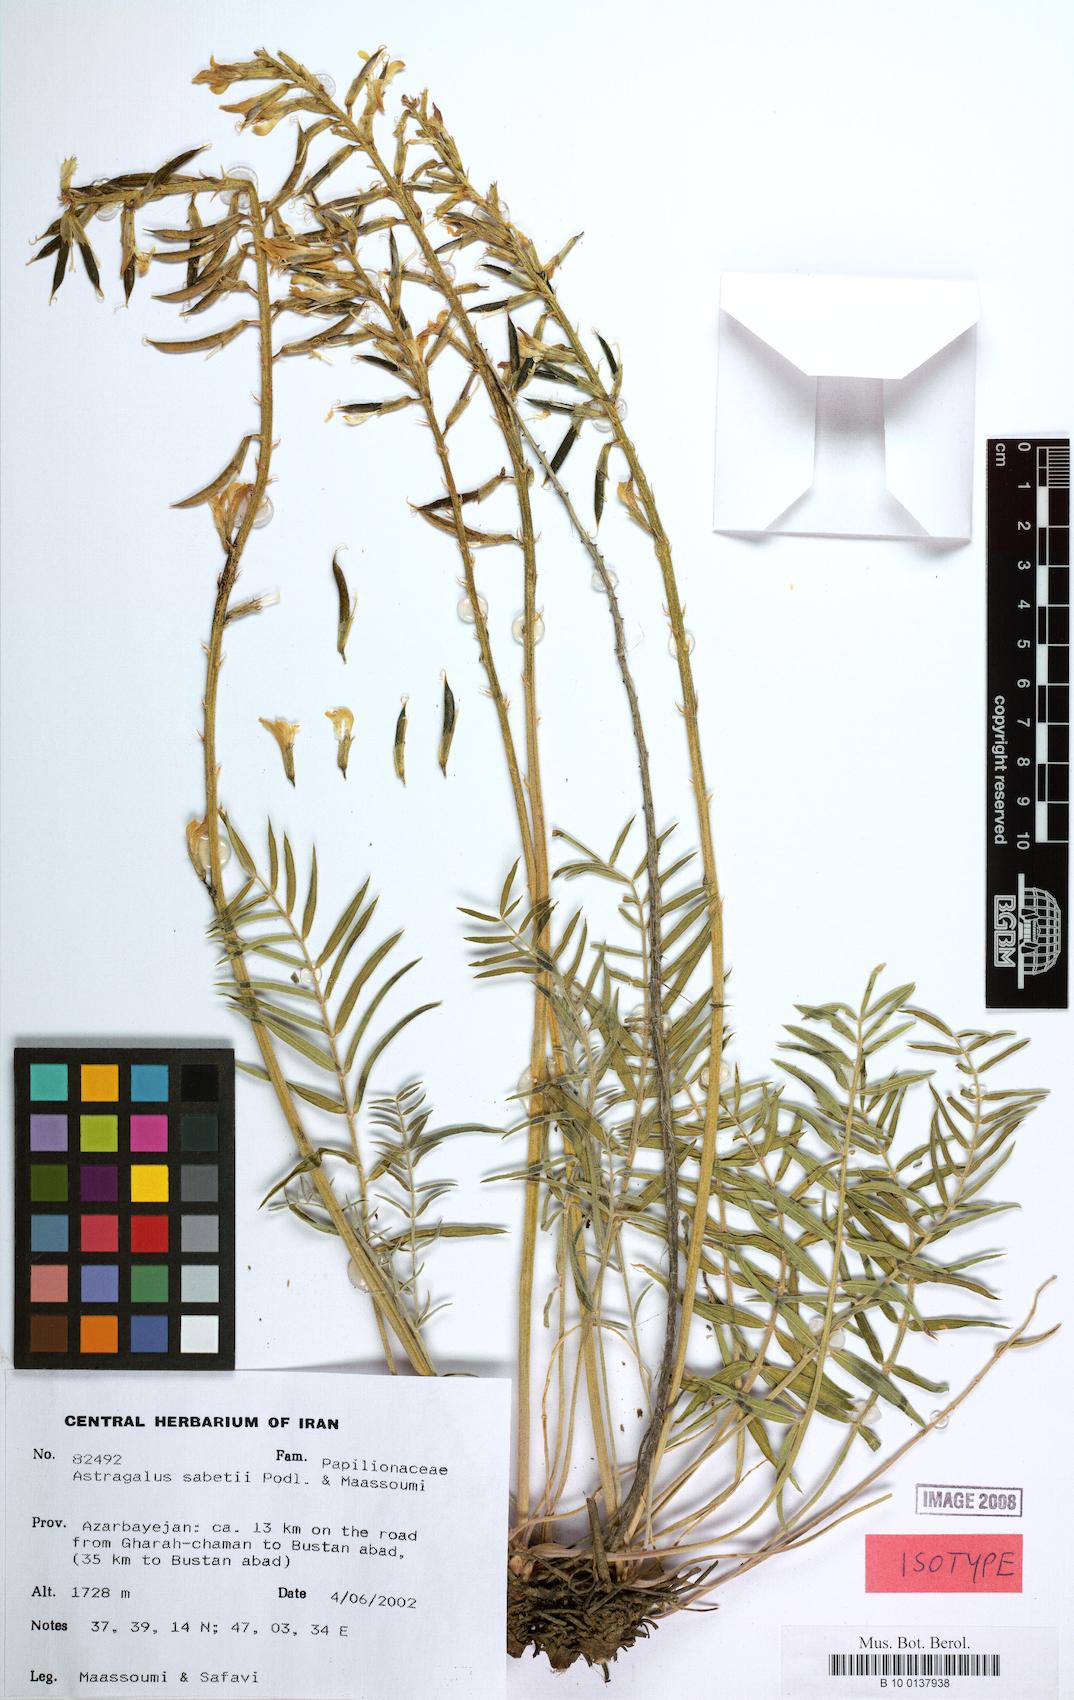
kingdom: Plantae
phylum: Tracheophyta
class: Magnoliopsida
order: Fabales
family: Fabaceae
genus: Astragalus
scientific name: Astragalus sabetii
